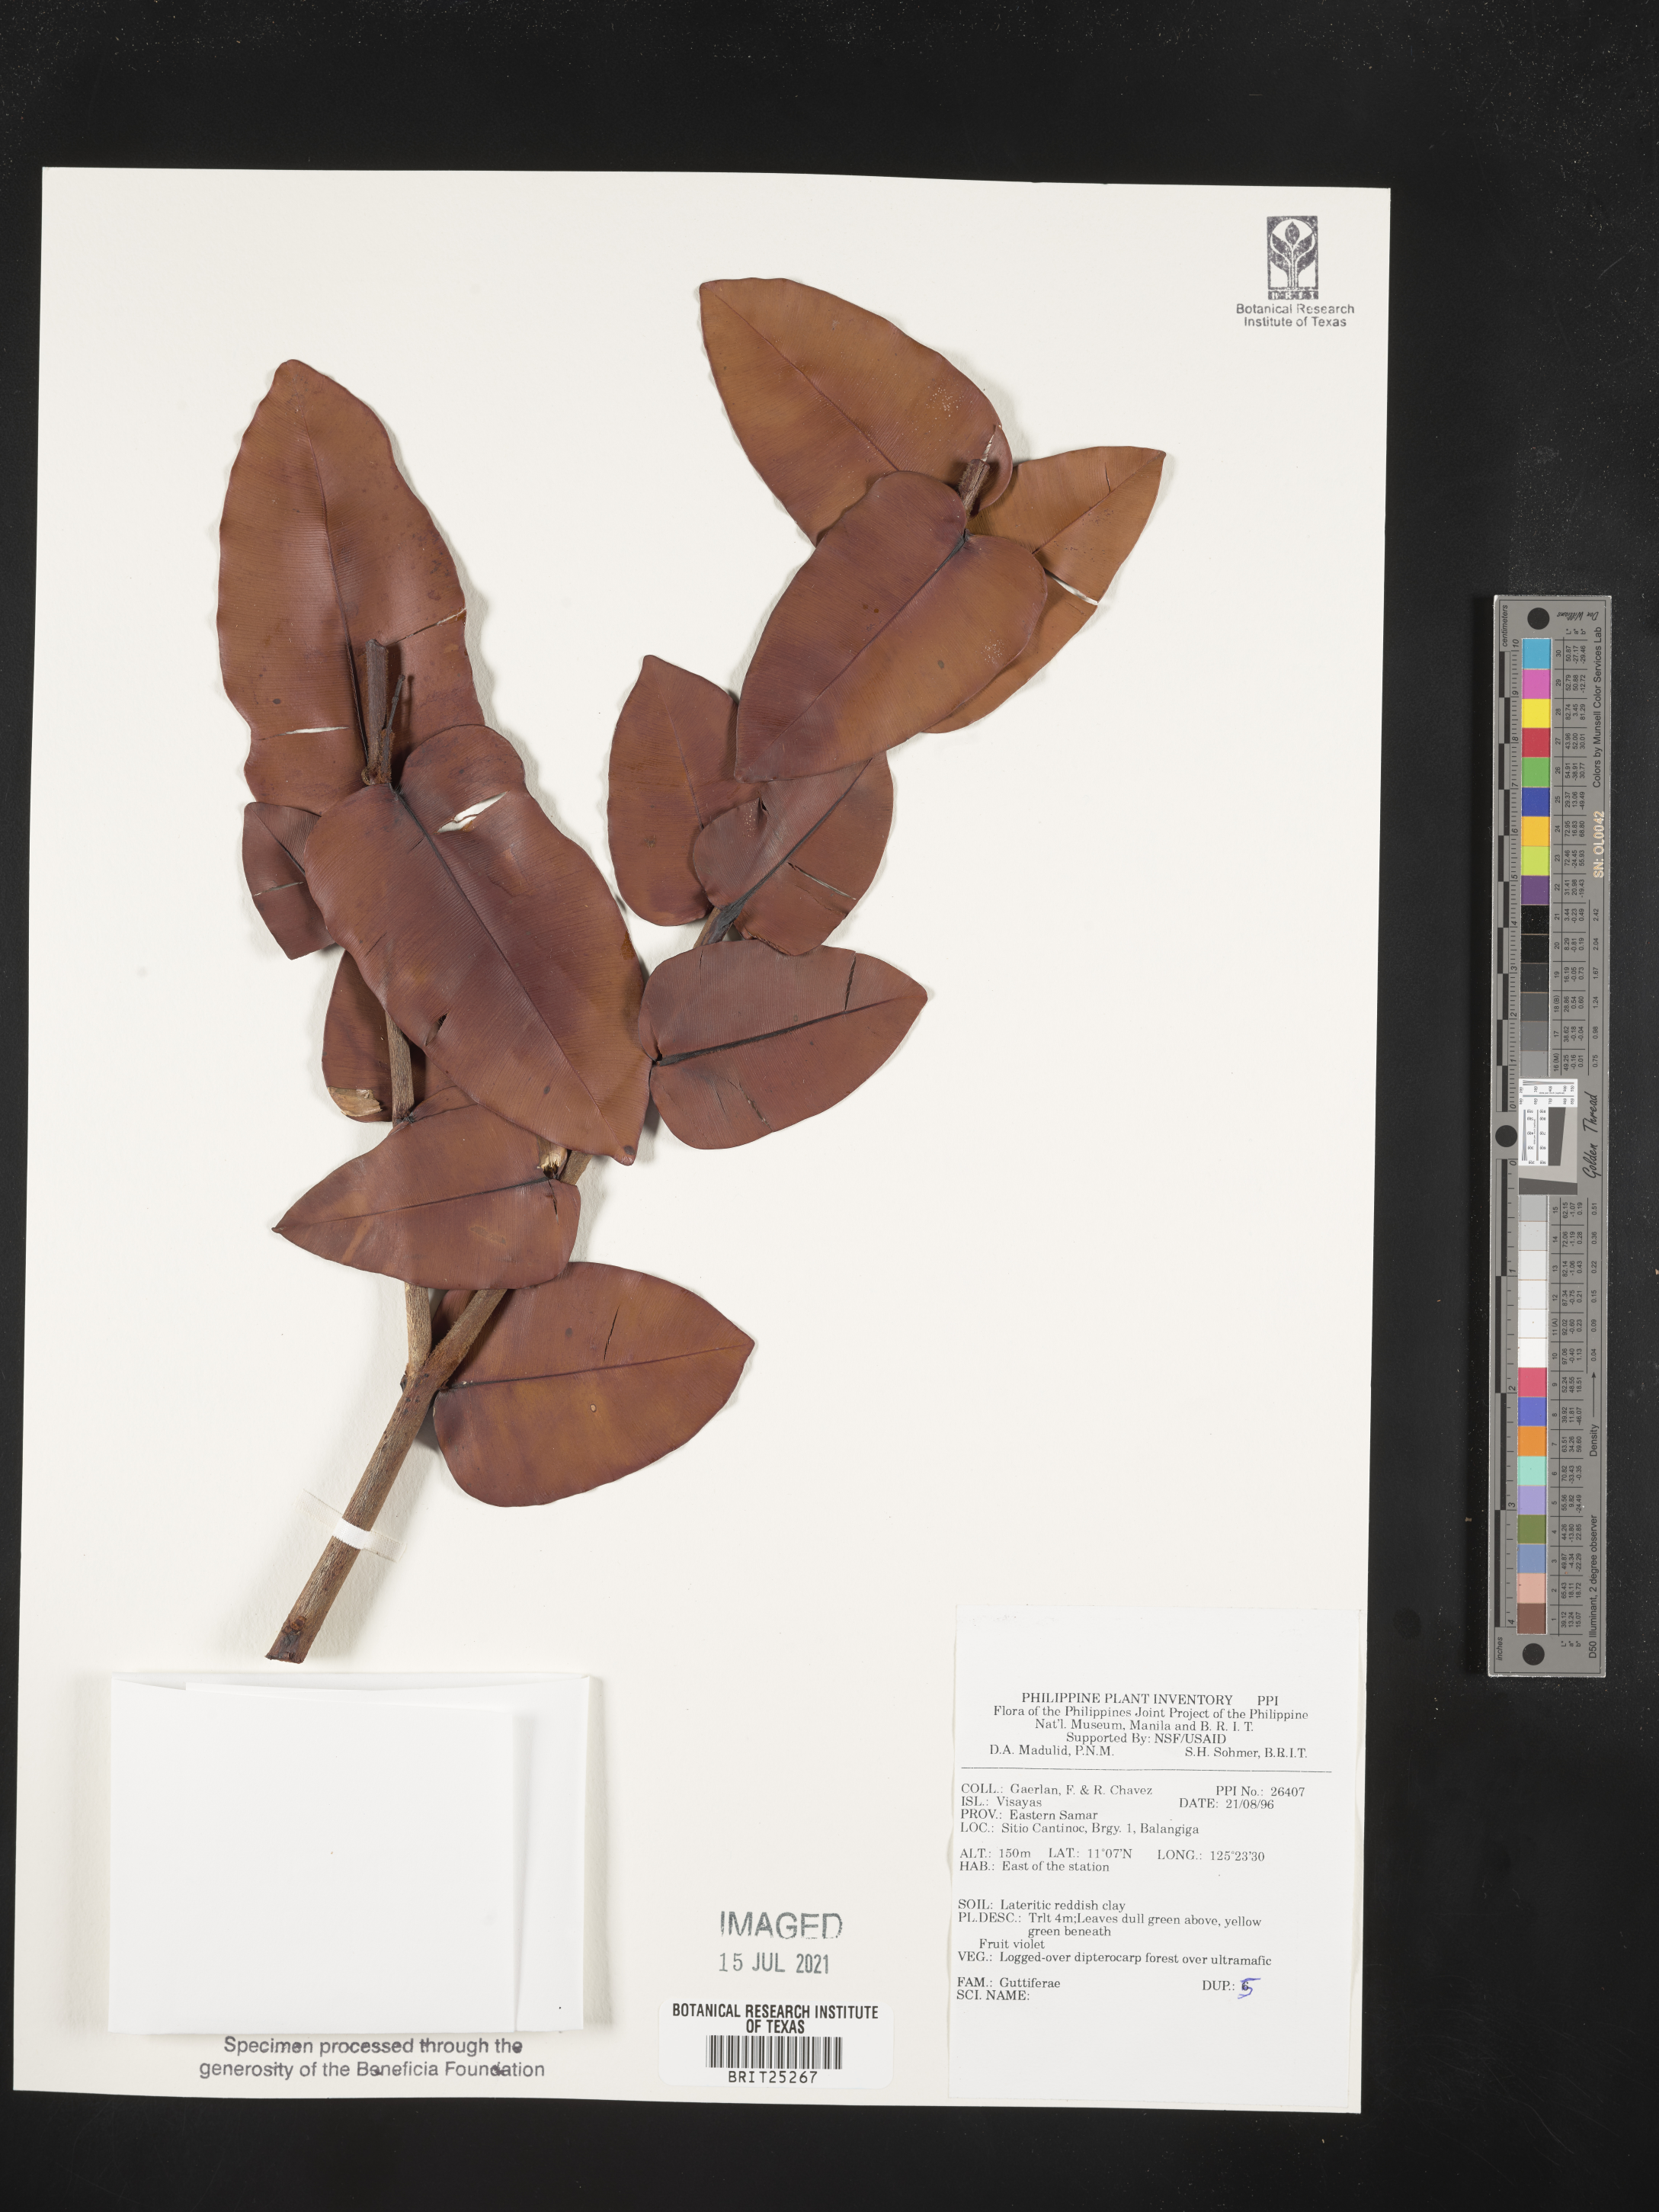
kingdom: Plantae
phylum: Tracheophyta
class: Magnoliopsida
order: Malpighiales
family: Hypericaceae
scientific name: Hypericaceae
